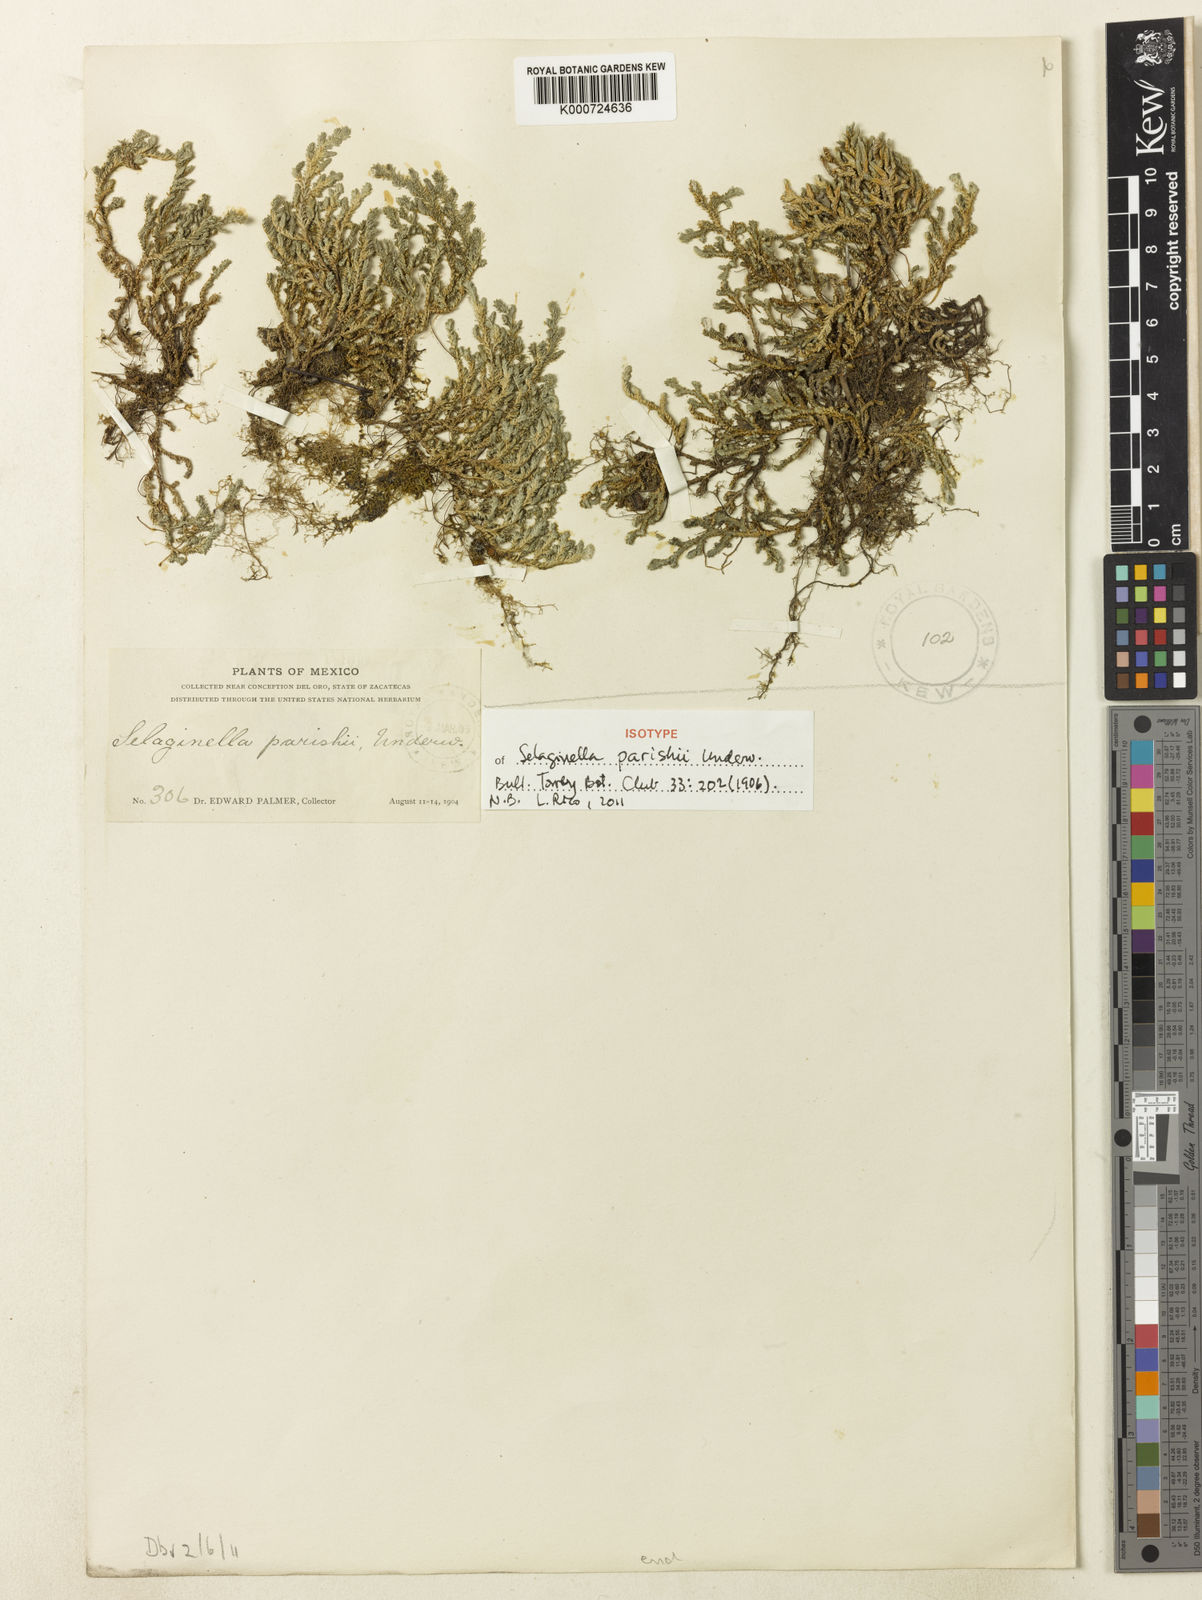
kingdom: Plantae
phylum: Tracheophyta
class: Lycopodiopsida
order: Selaginellales
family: Selaginellaceae
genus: Selaginella
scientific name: Selaginella parishii
